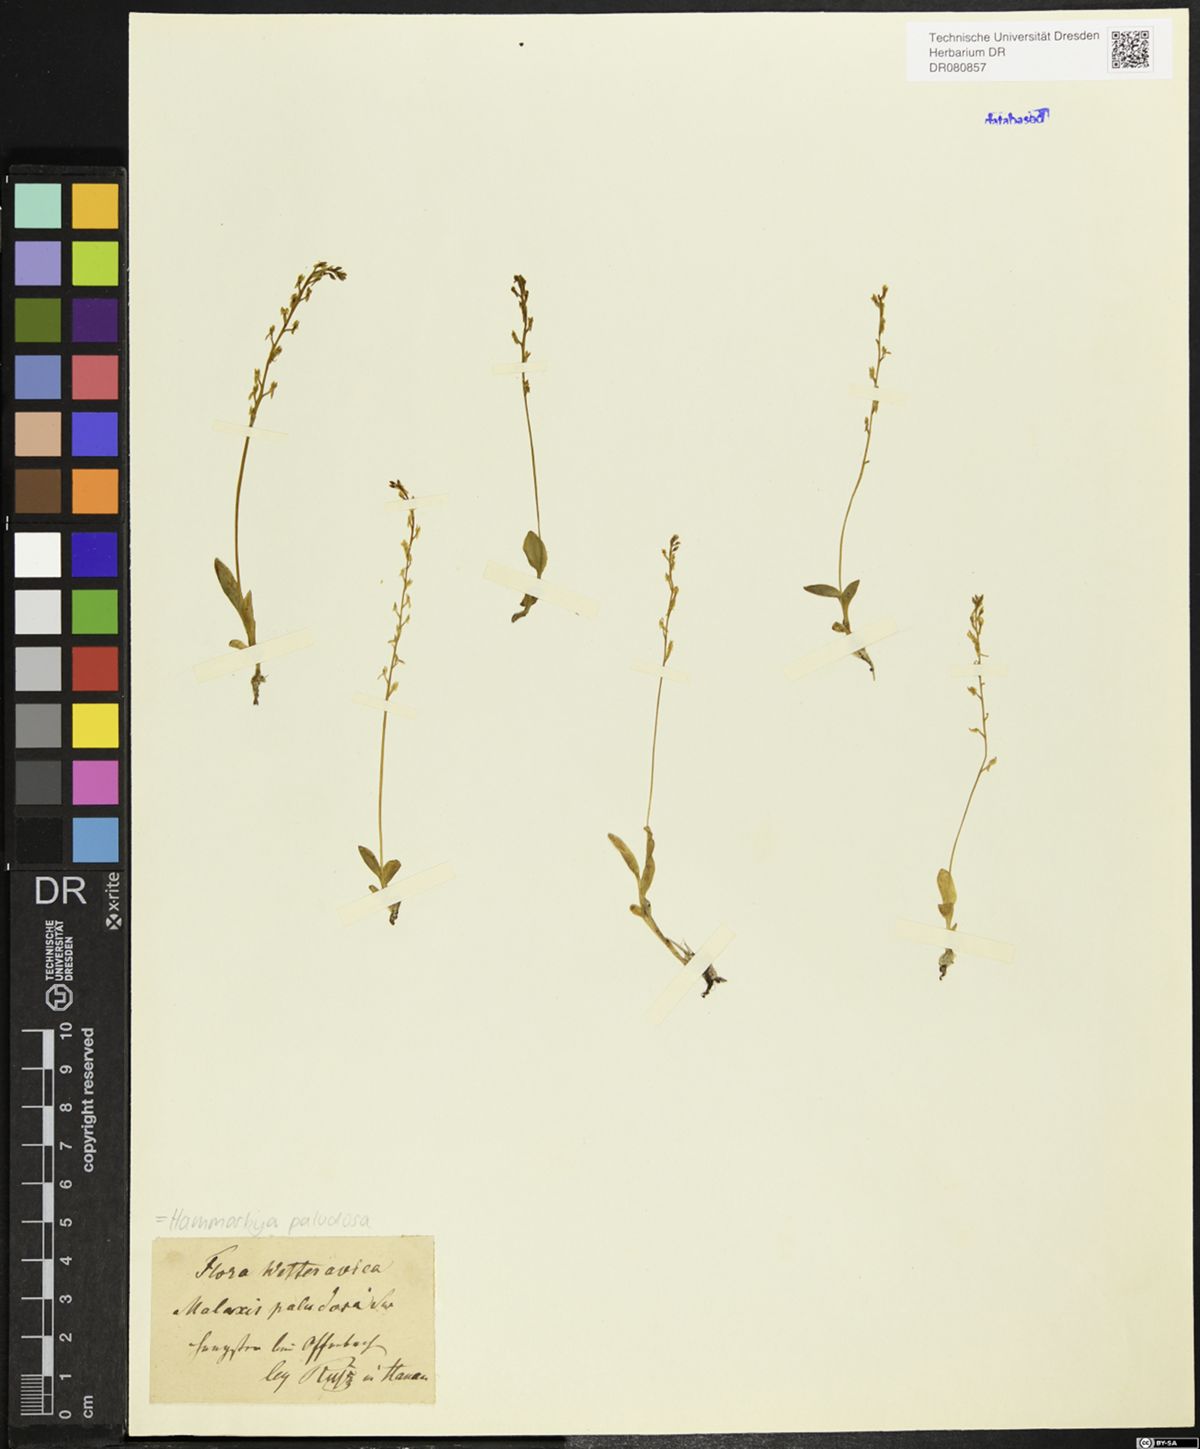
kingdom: Plantae
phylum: Tracheophyta
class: Liliopsida
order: Asparagales
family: Orchidaceae
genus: Hammarbya
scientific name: Hammarbya paludosa
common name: Bog orchid
